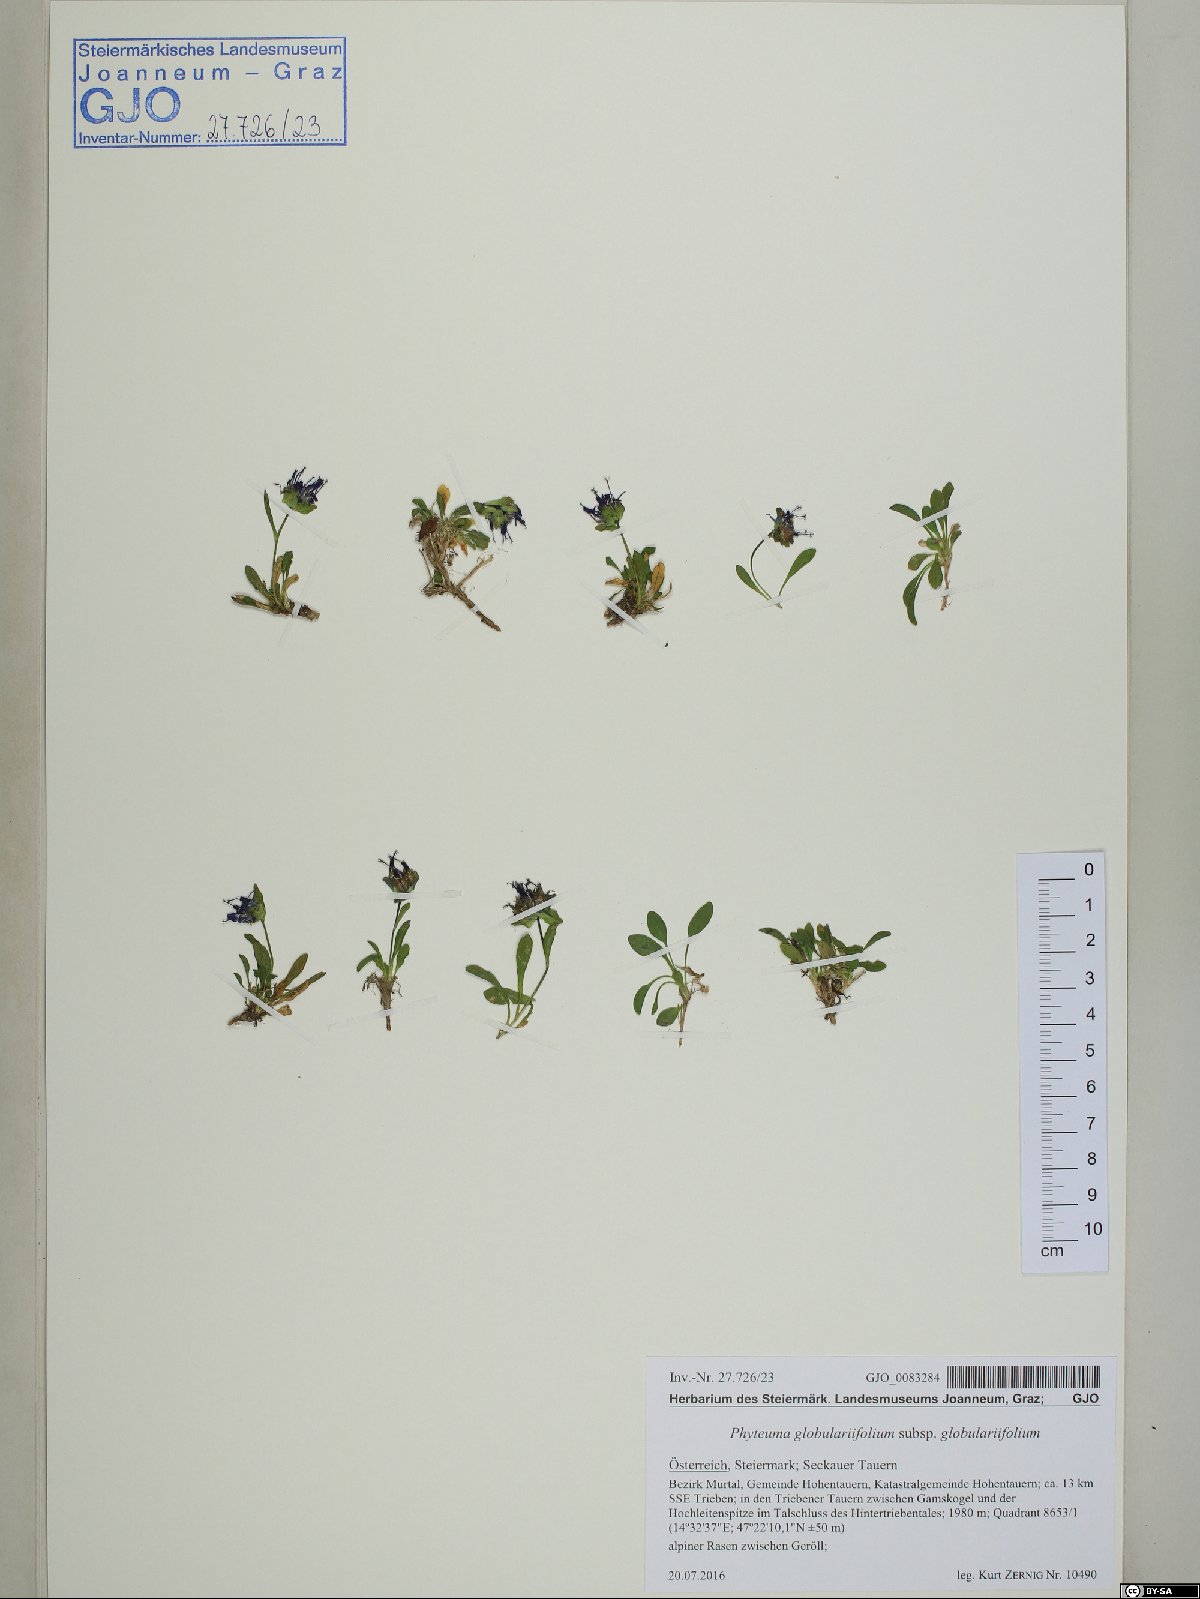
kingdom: Plantae
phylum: Tracheophyta
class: Magnoliopsida
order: Asterales
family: Campanulaceae
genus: Phyteuma
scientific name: Phyteuma globulariifolium
